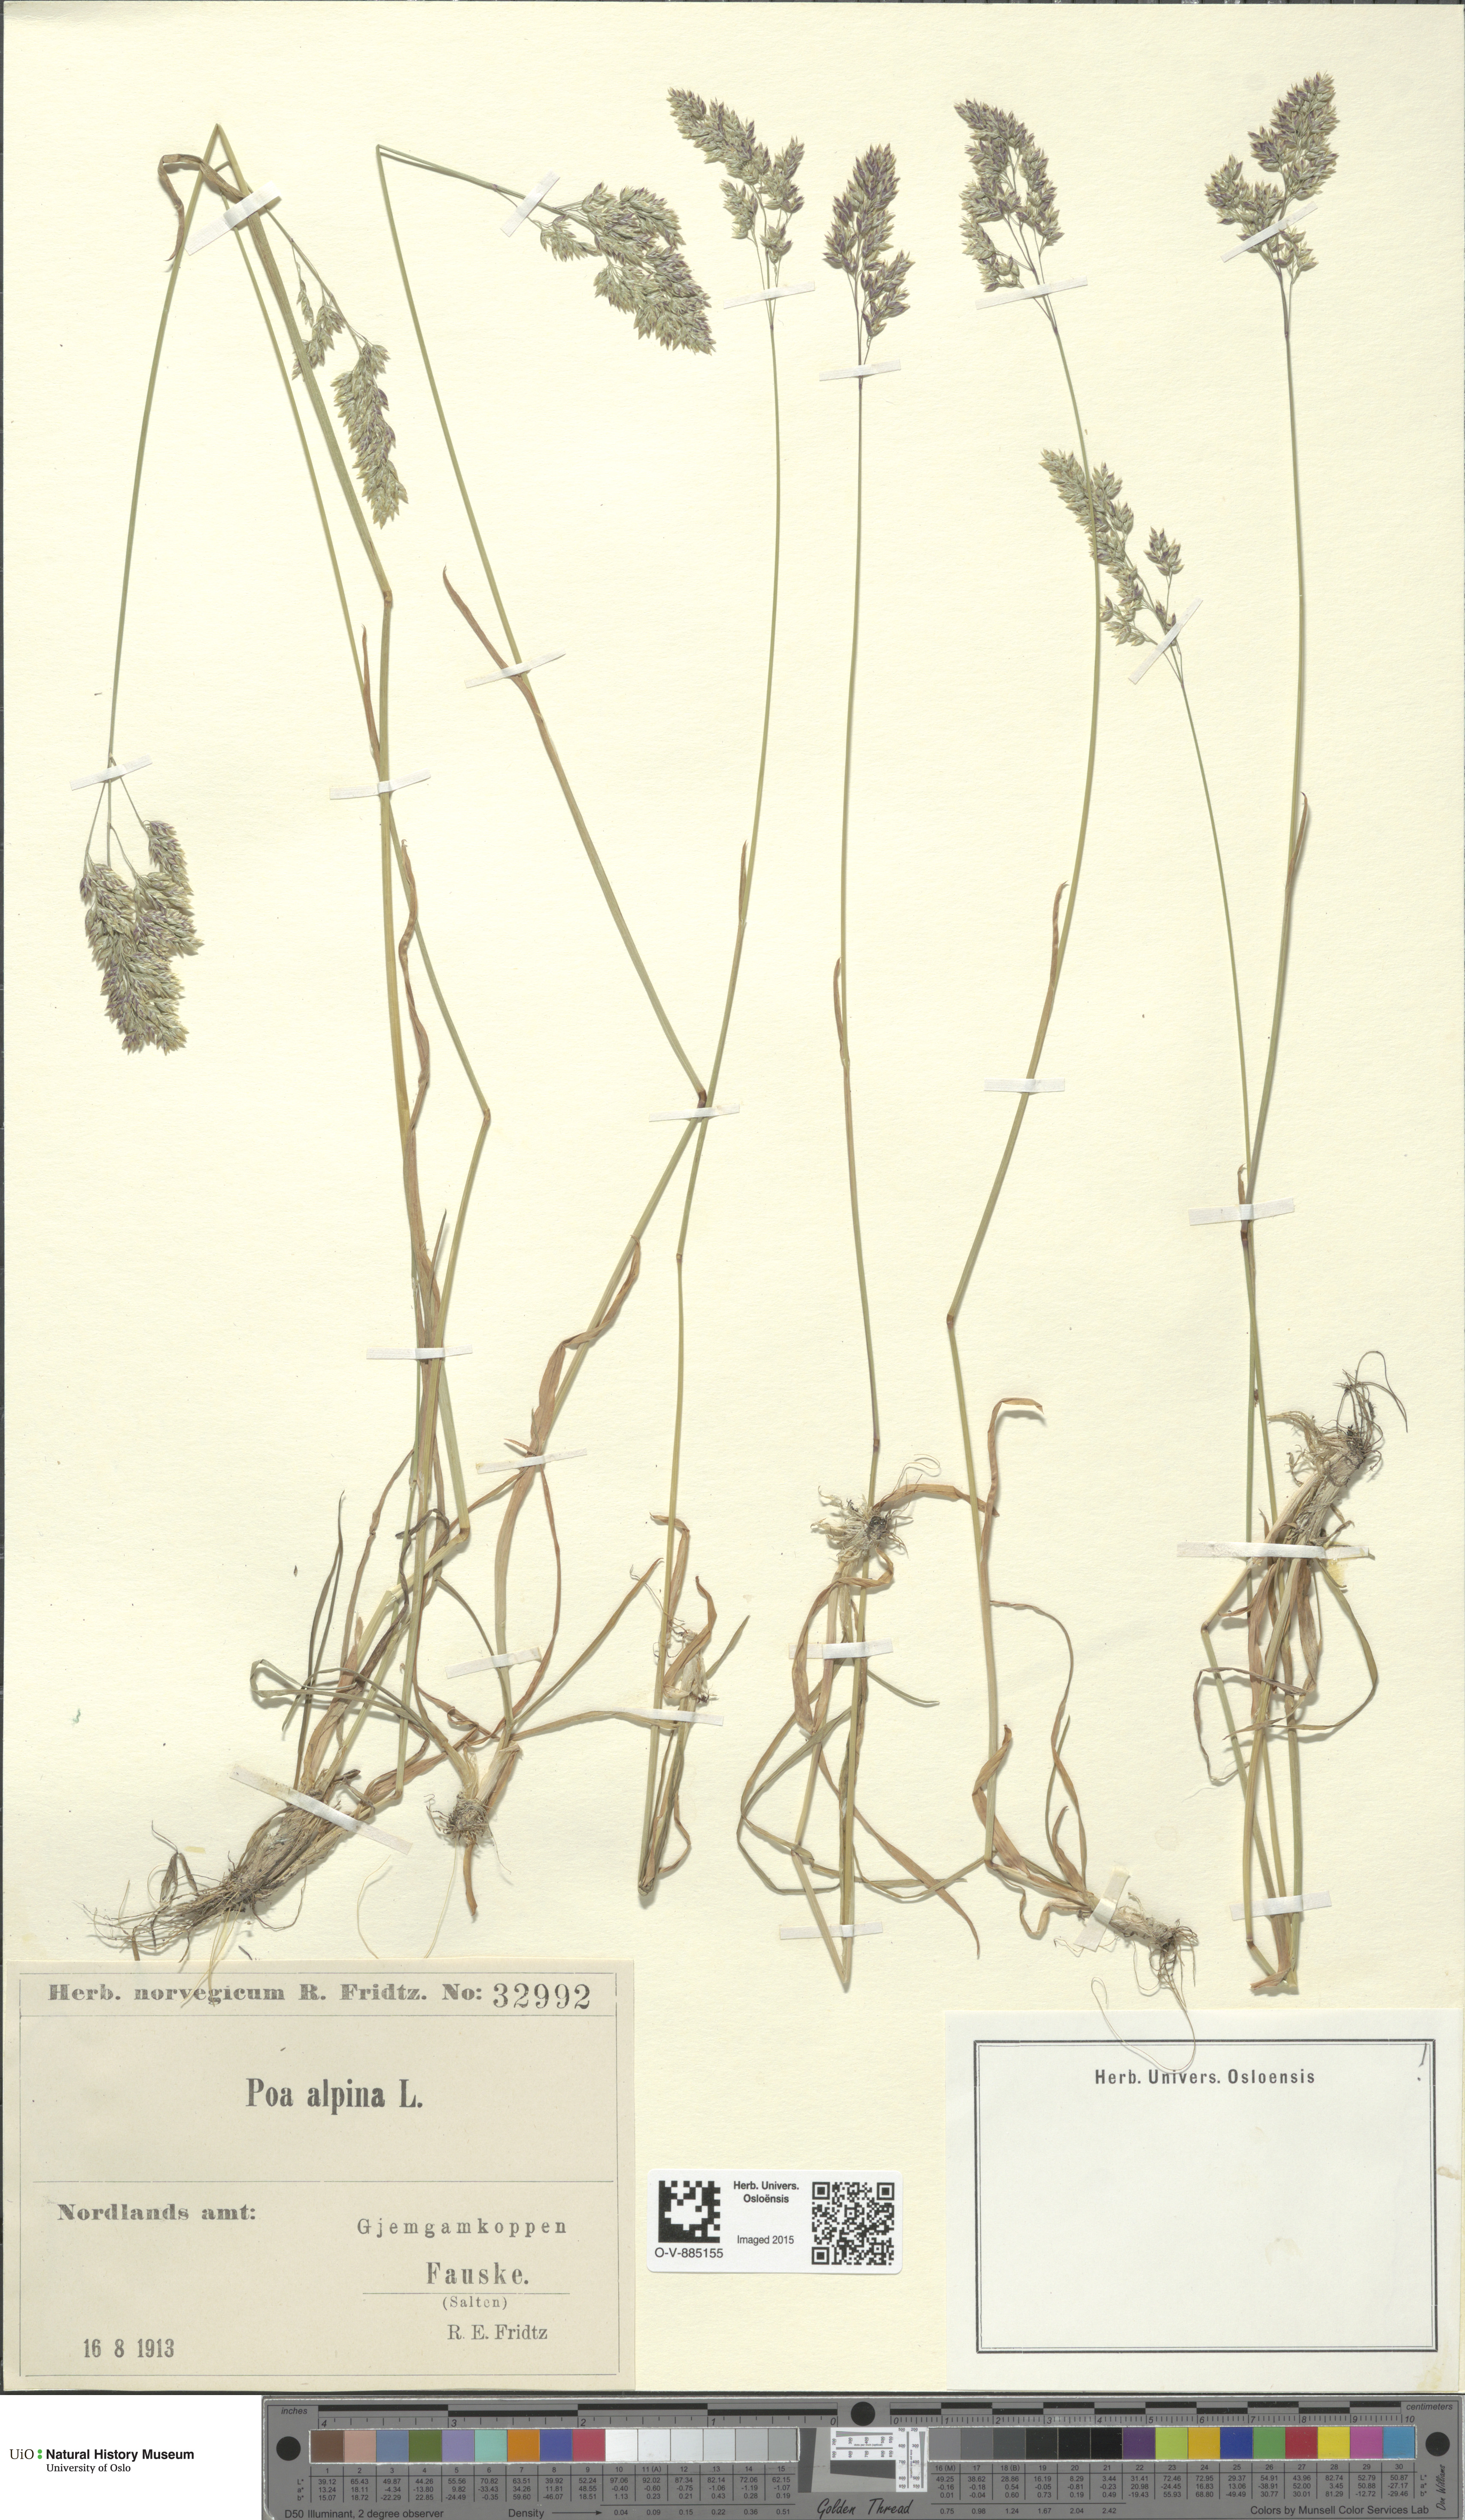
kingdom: Plantae
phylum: Tracheophyta
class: Liliopsida
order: Poales
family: Poaceae
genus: Poa
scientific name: Poa alpina
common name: Alpine bluegrass
